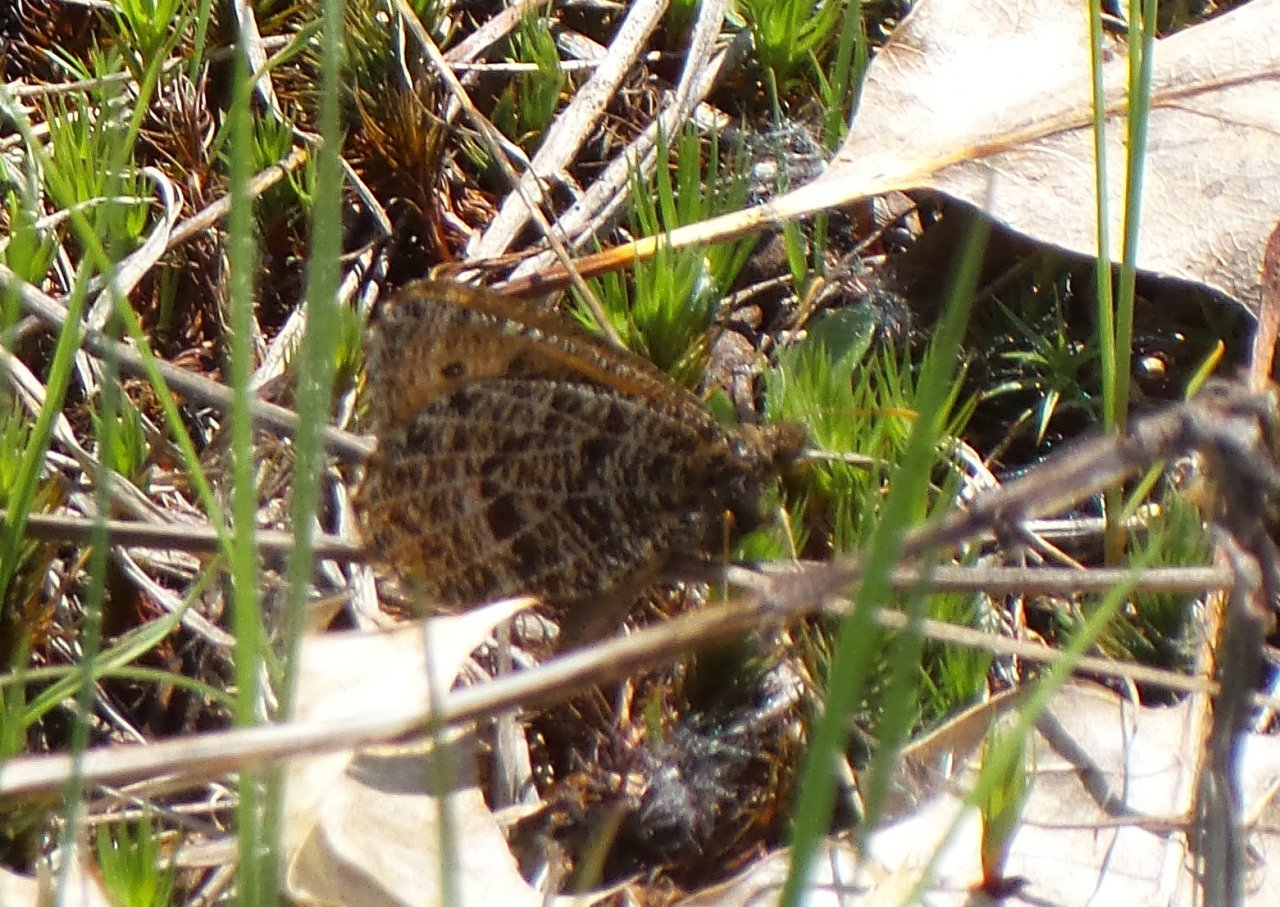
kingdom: Animalia
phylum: Arthropoda
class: Insecta
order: Lepidoptera
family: Nymphalidae
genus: Oeneis
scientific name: Oeneis chryxus
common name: Chryxus Arctic
